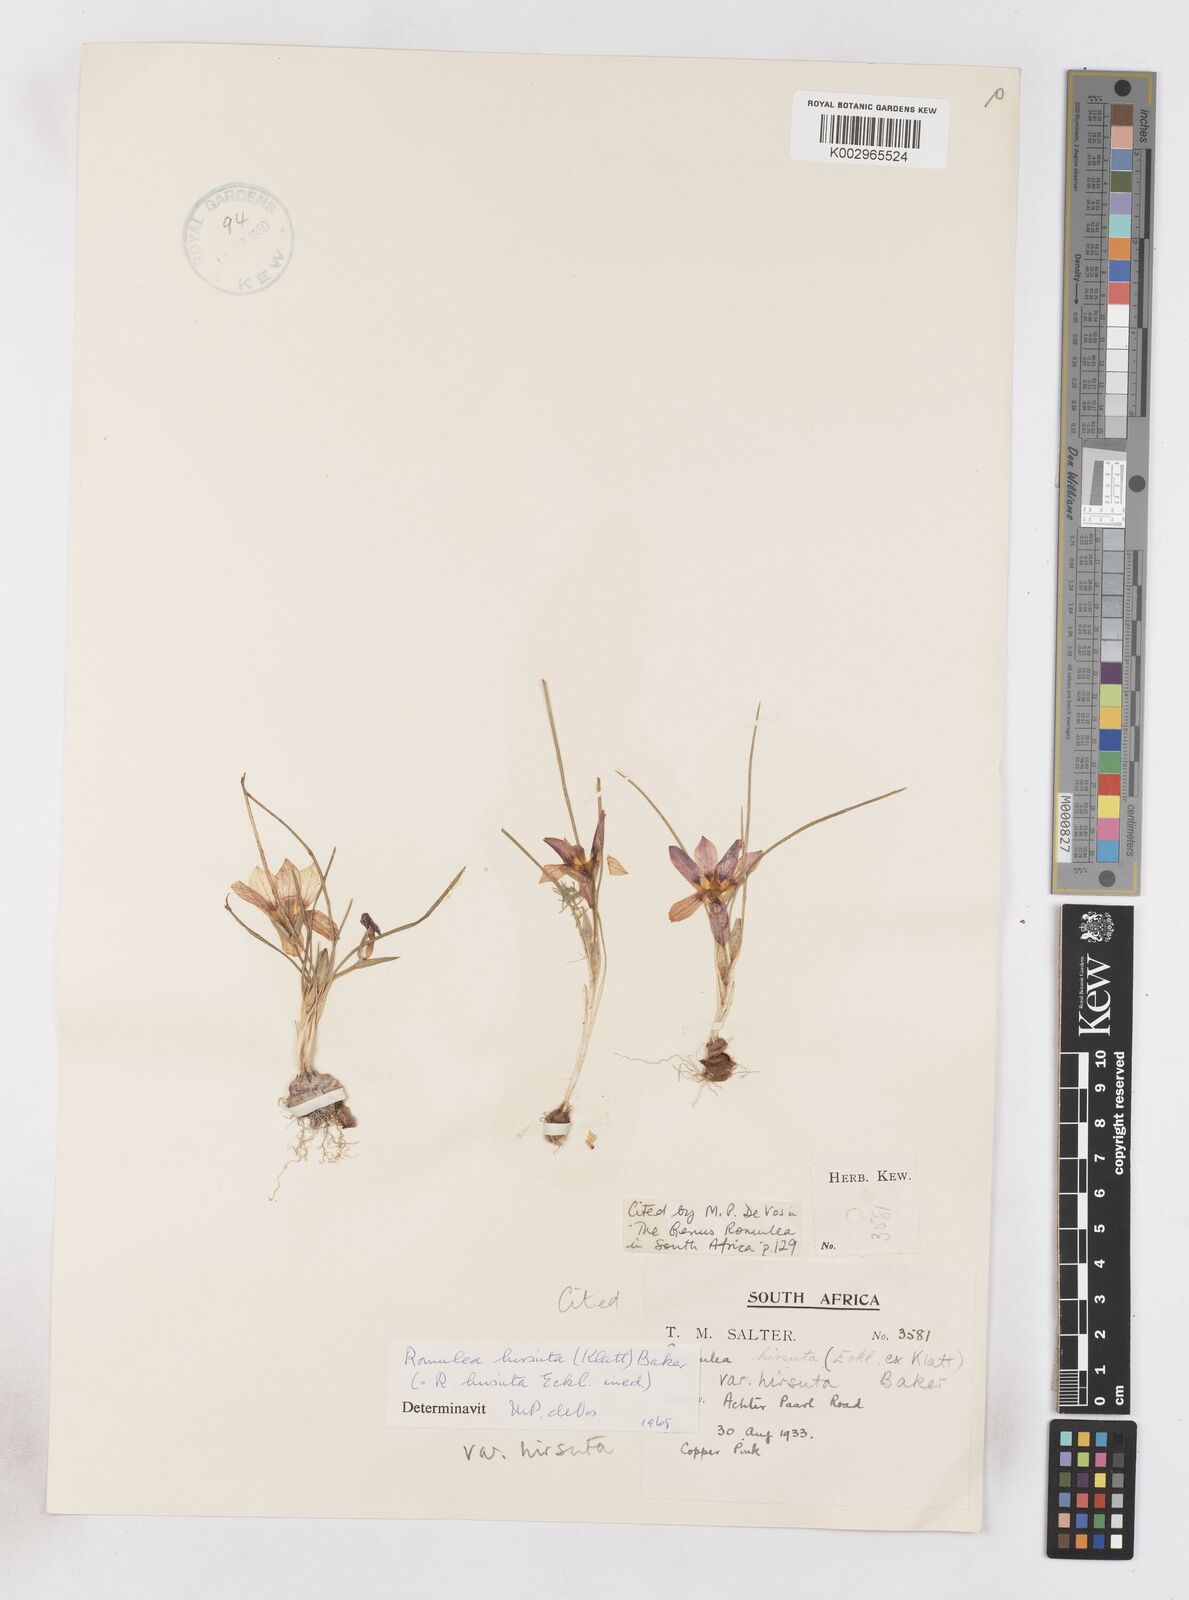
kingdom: Plantae
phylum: Tracheophyta
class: Liliopsida
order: Asparagales
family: Iridaceae
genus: Romulea
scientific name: Romulea hirsuta
